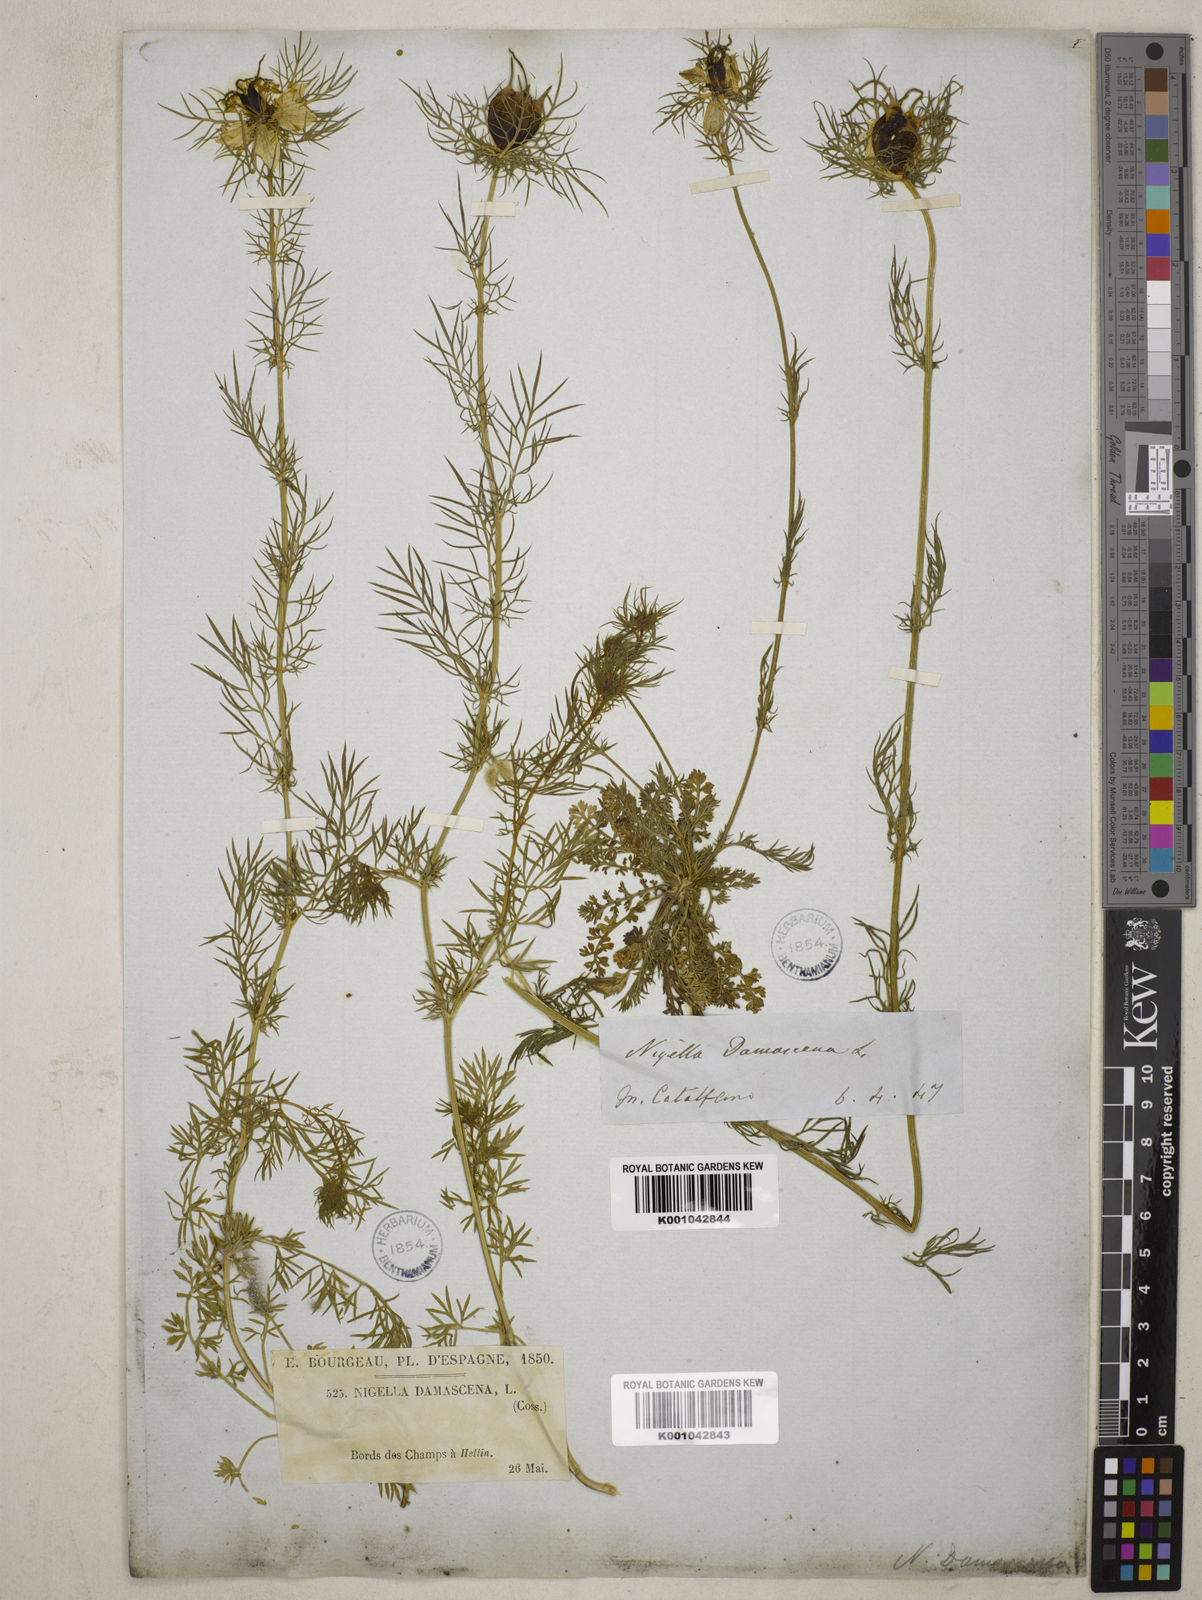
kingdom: Plantae
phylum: Tracheophyta
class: Magnoliopsida
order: Ranunculales
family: Ranunculaceae
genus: Nigella
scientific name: Nigella damascena
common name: Love-in-a-mist
